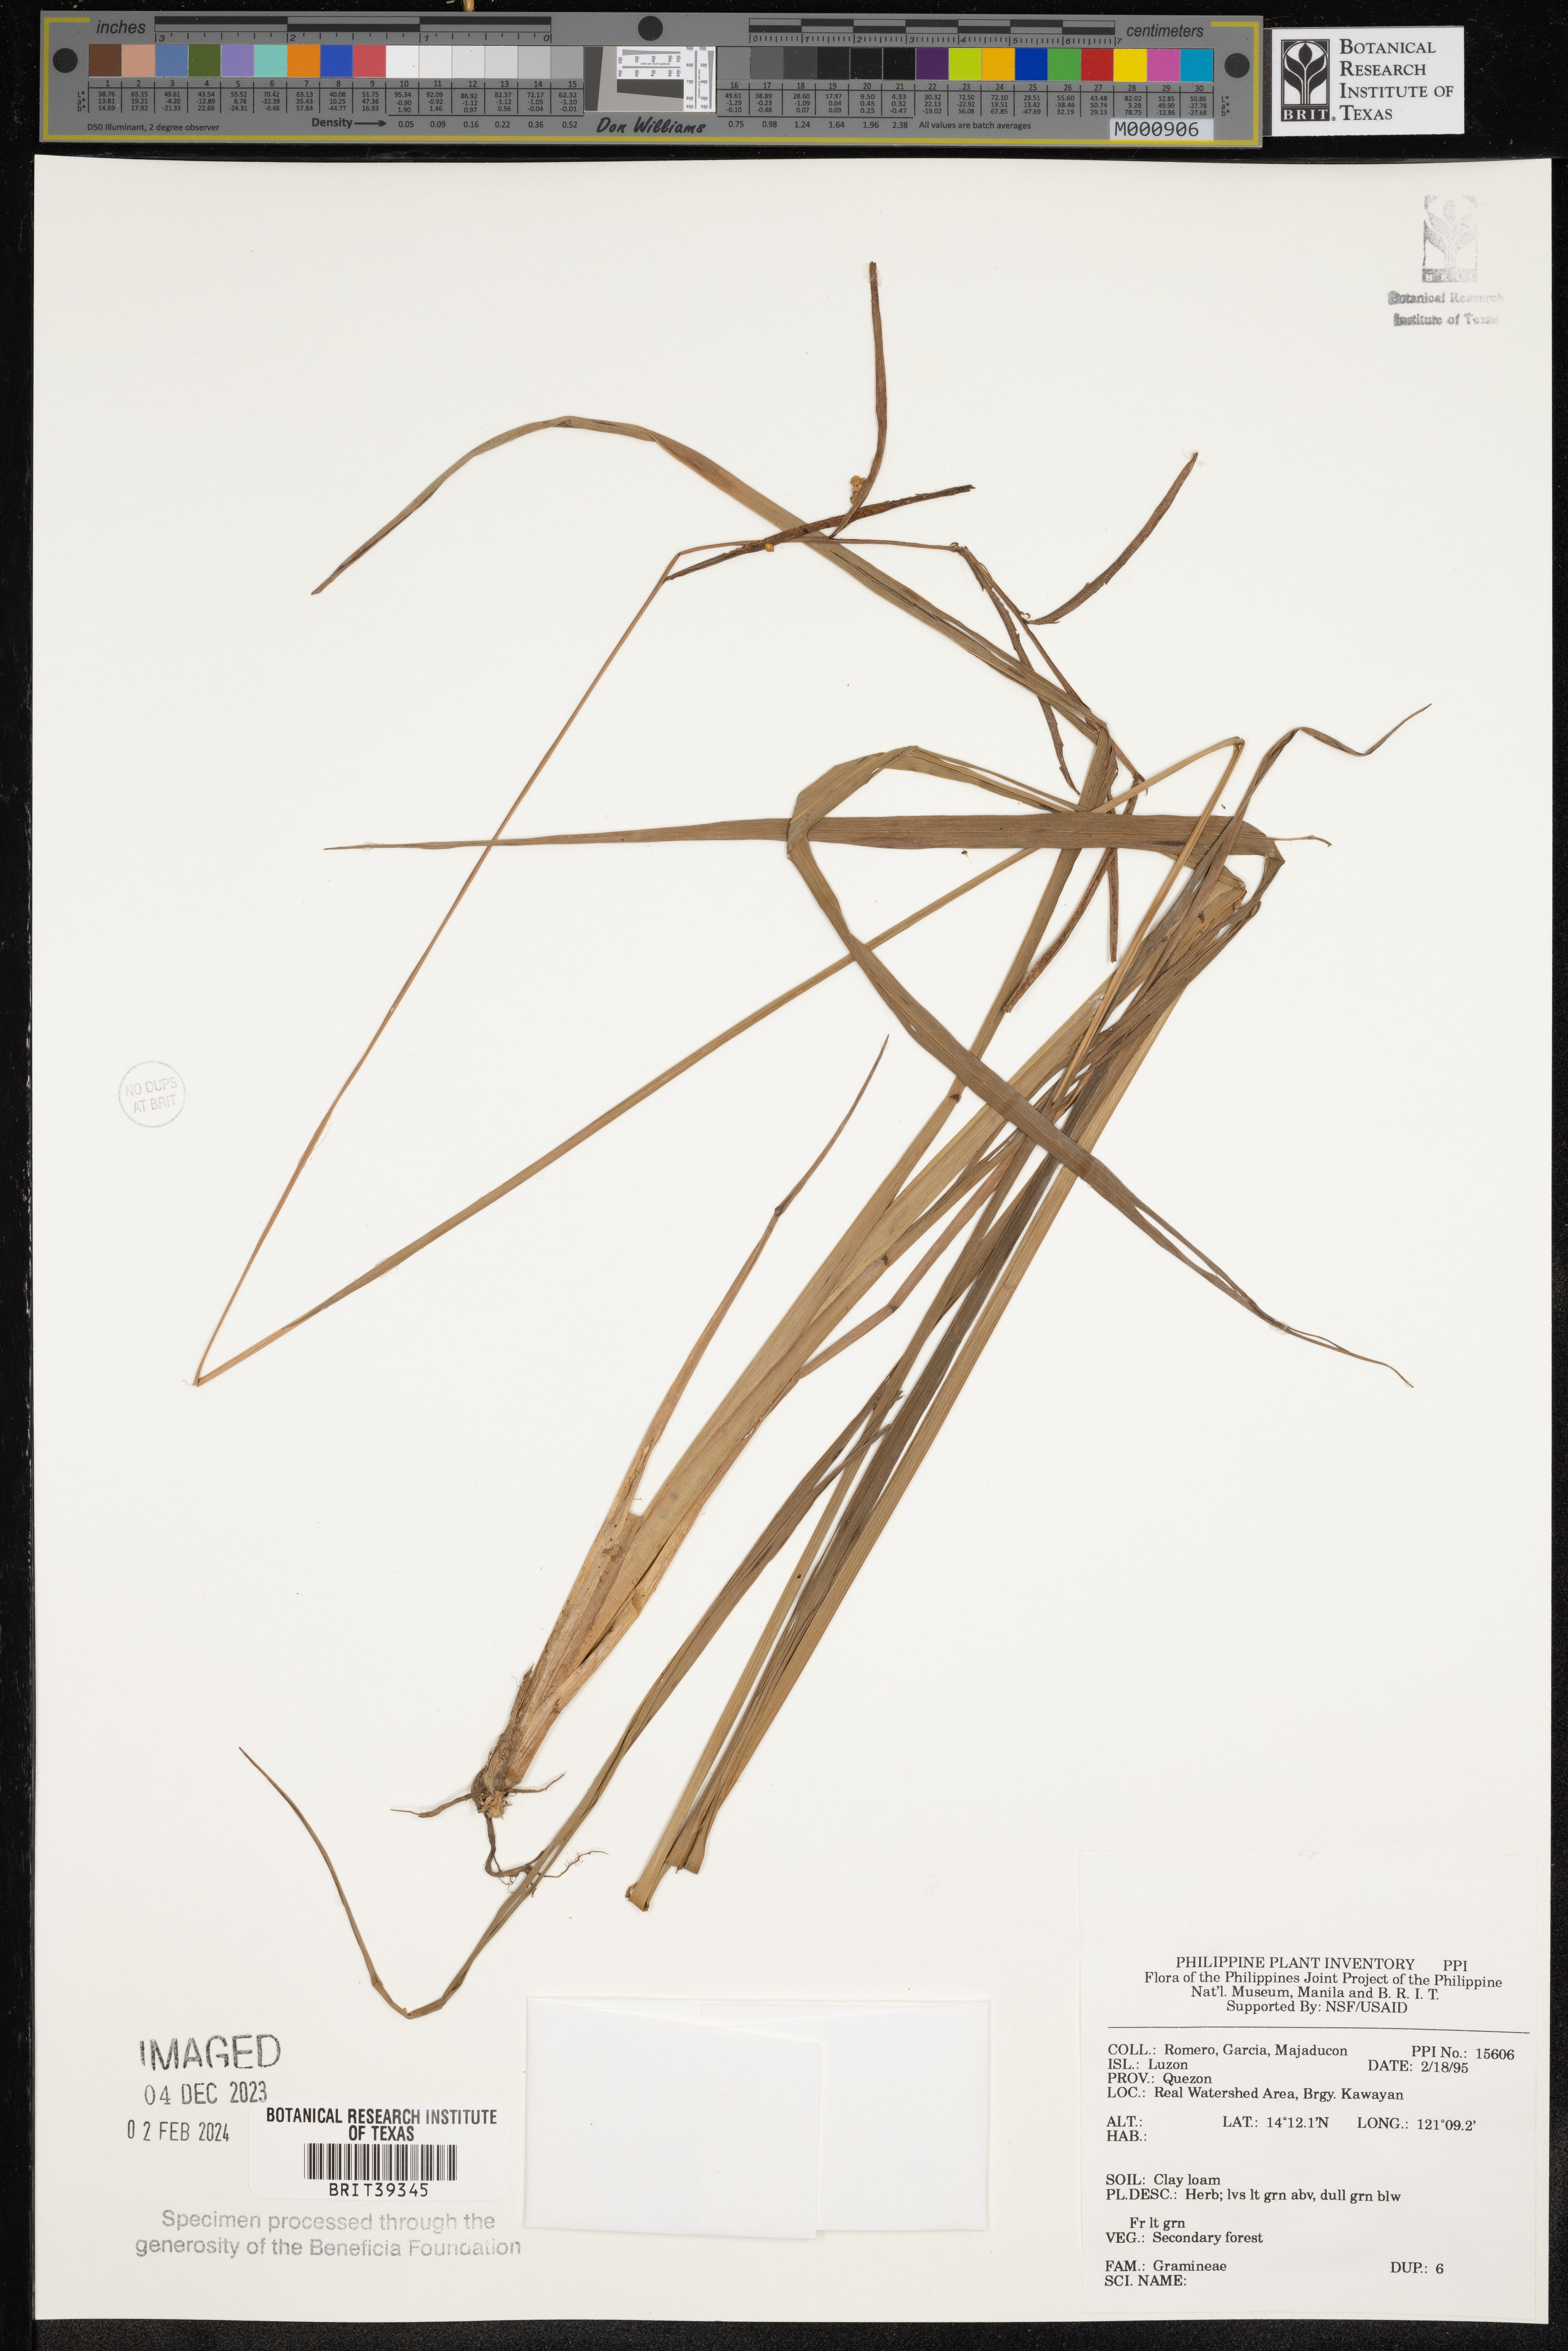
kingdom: Plantae
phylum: Tracheophyta
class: Liliopsida
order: Poales
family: Poaceae
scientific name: Poaceae
